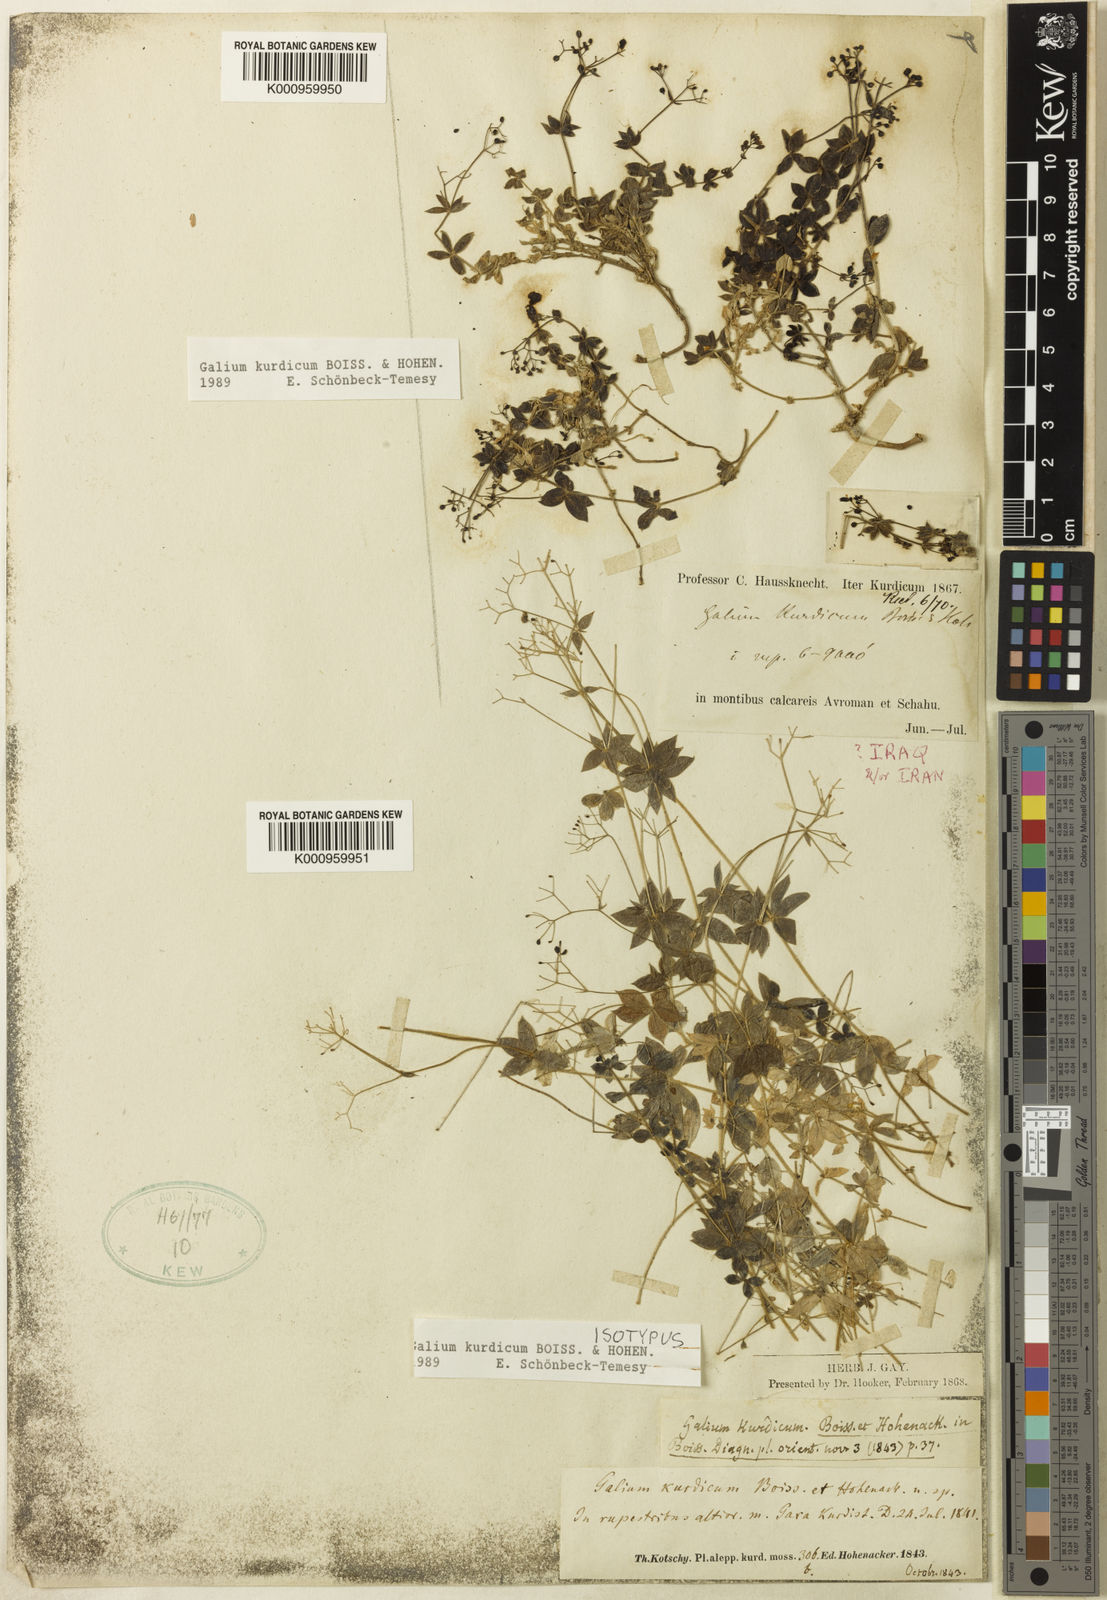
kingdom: Plantae
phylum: Tracheophyta
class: Magnoliopsida
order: Gentianales
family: Rubiaceae
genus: Galium
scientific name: Galium kurdicum
